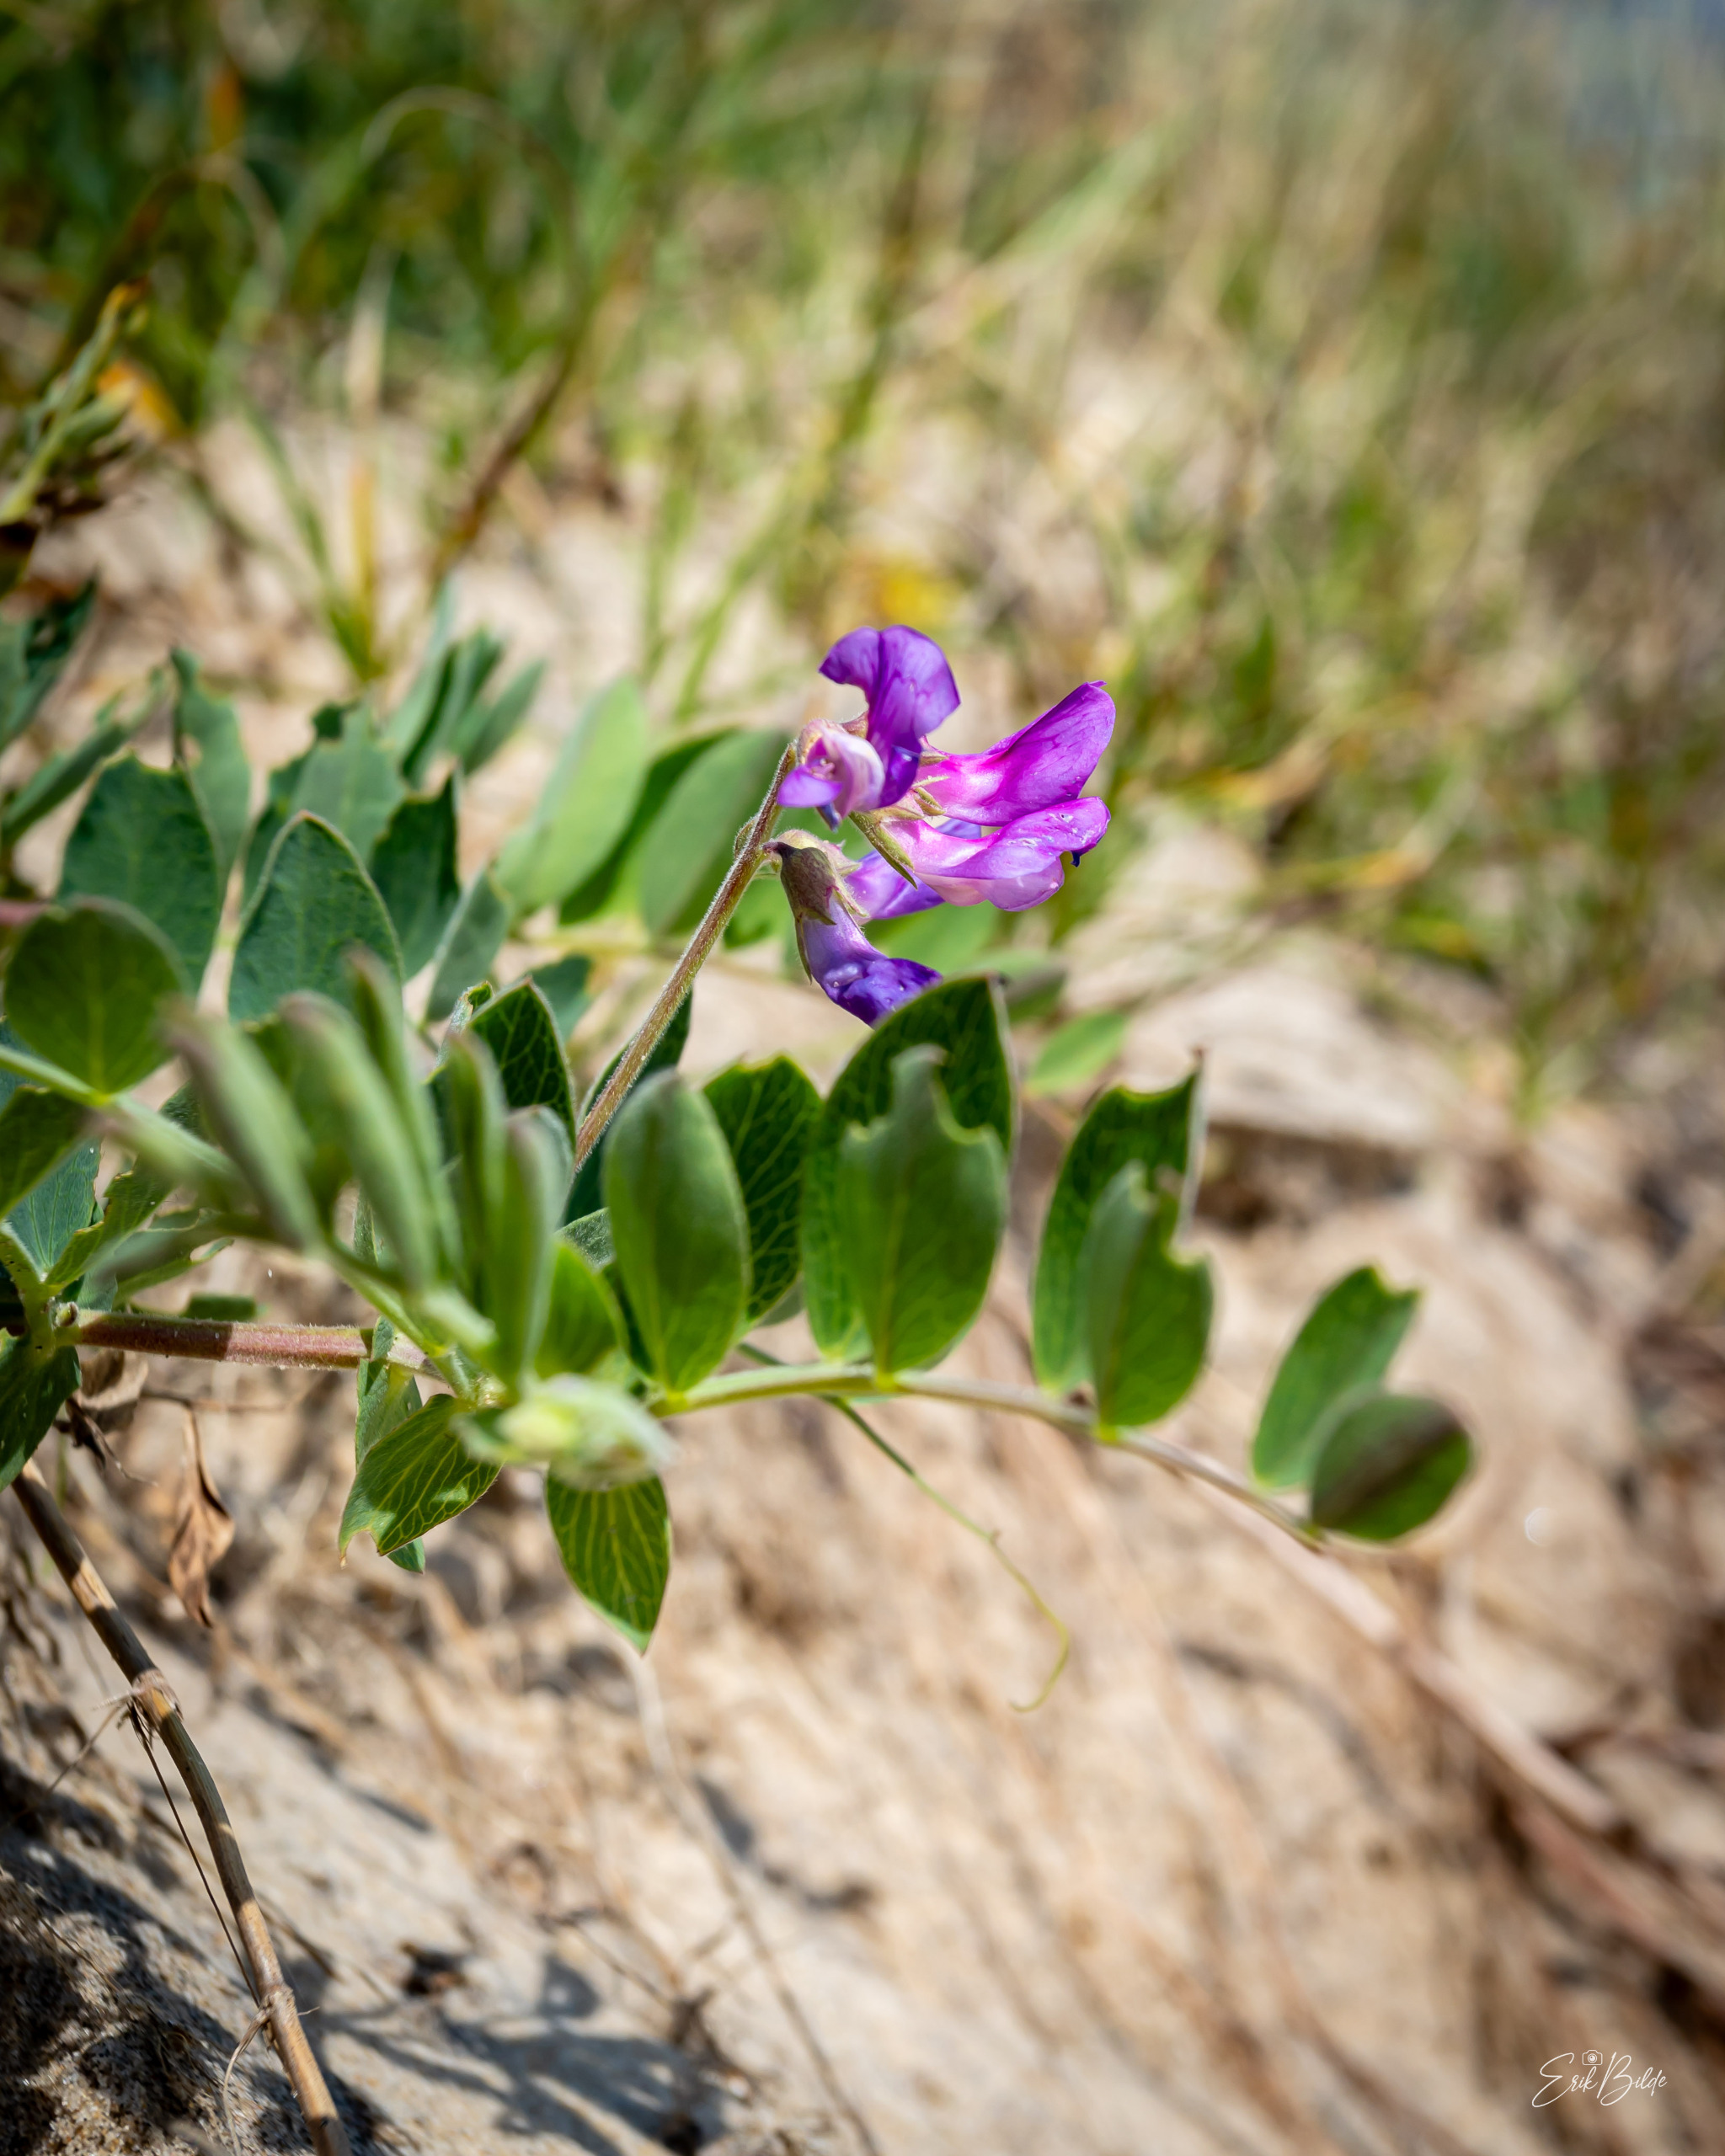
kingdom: Plantae
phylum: Tracheophyta
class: Magnoliopsida
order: Fabales
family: Fabaceae
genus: Lathyrus
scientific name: Lathyrus japonicus
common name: Strand-fladbælg
